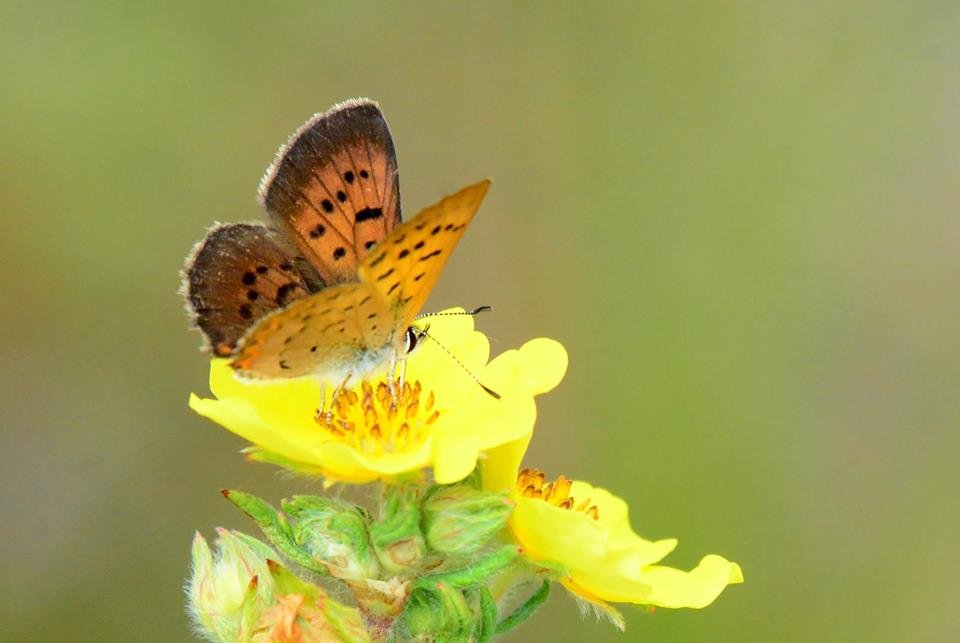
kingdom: Animalia
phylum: Arthropoda
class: Insecta
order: Lepidoptera
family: Lycaenidae
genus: Epidemia
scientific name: Epidemia dorcas
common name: Dorcas Copper
